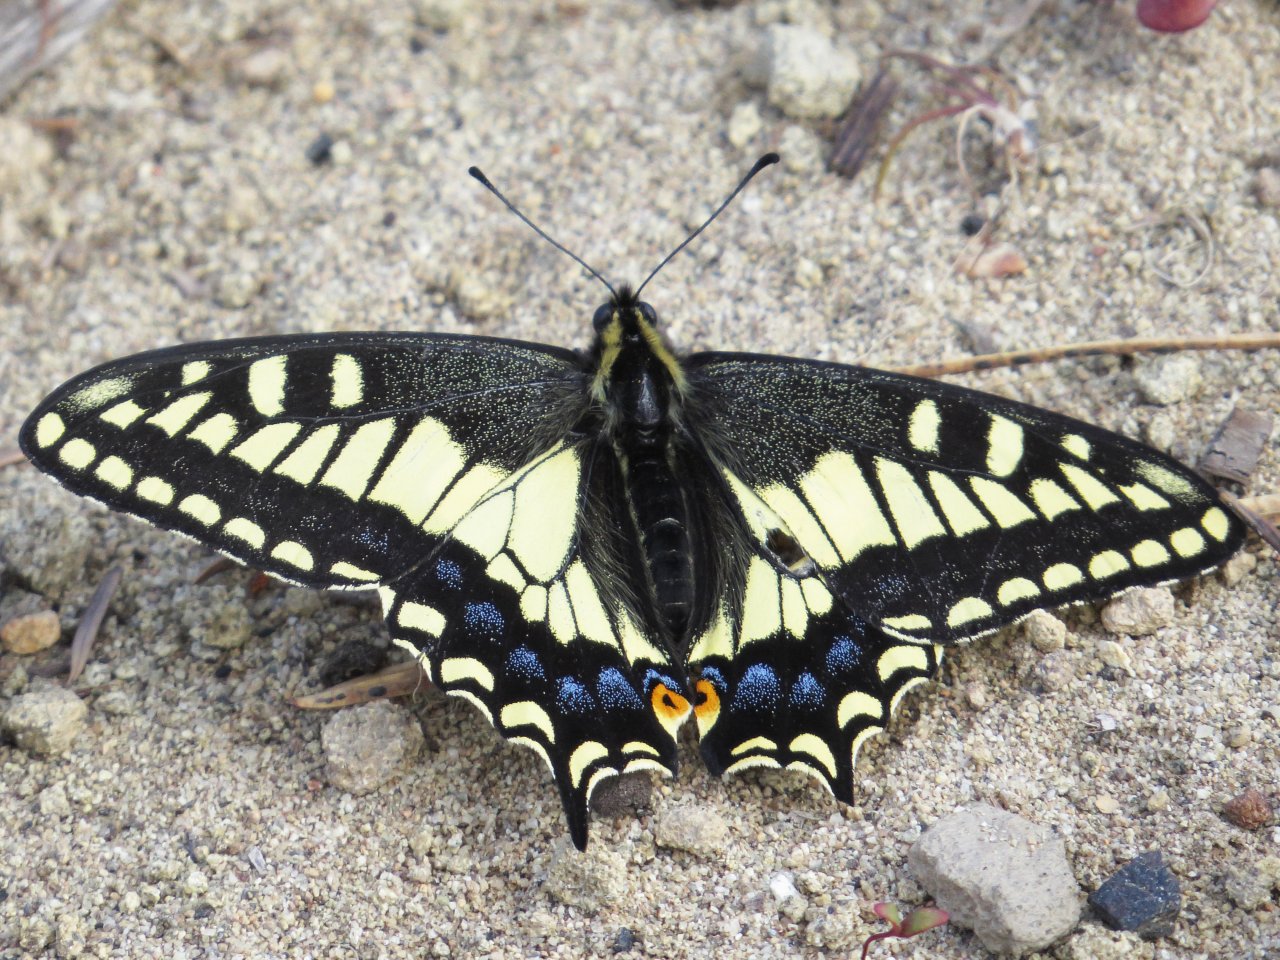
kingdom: Animalia
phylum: Arthropoda
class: Insecta
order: Lepidoptera
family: Papilionidae
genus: Papilio
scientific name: Papilio zelicaon
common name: Anise Swallowtail
